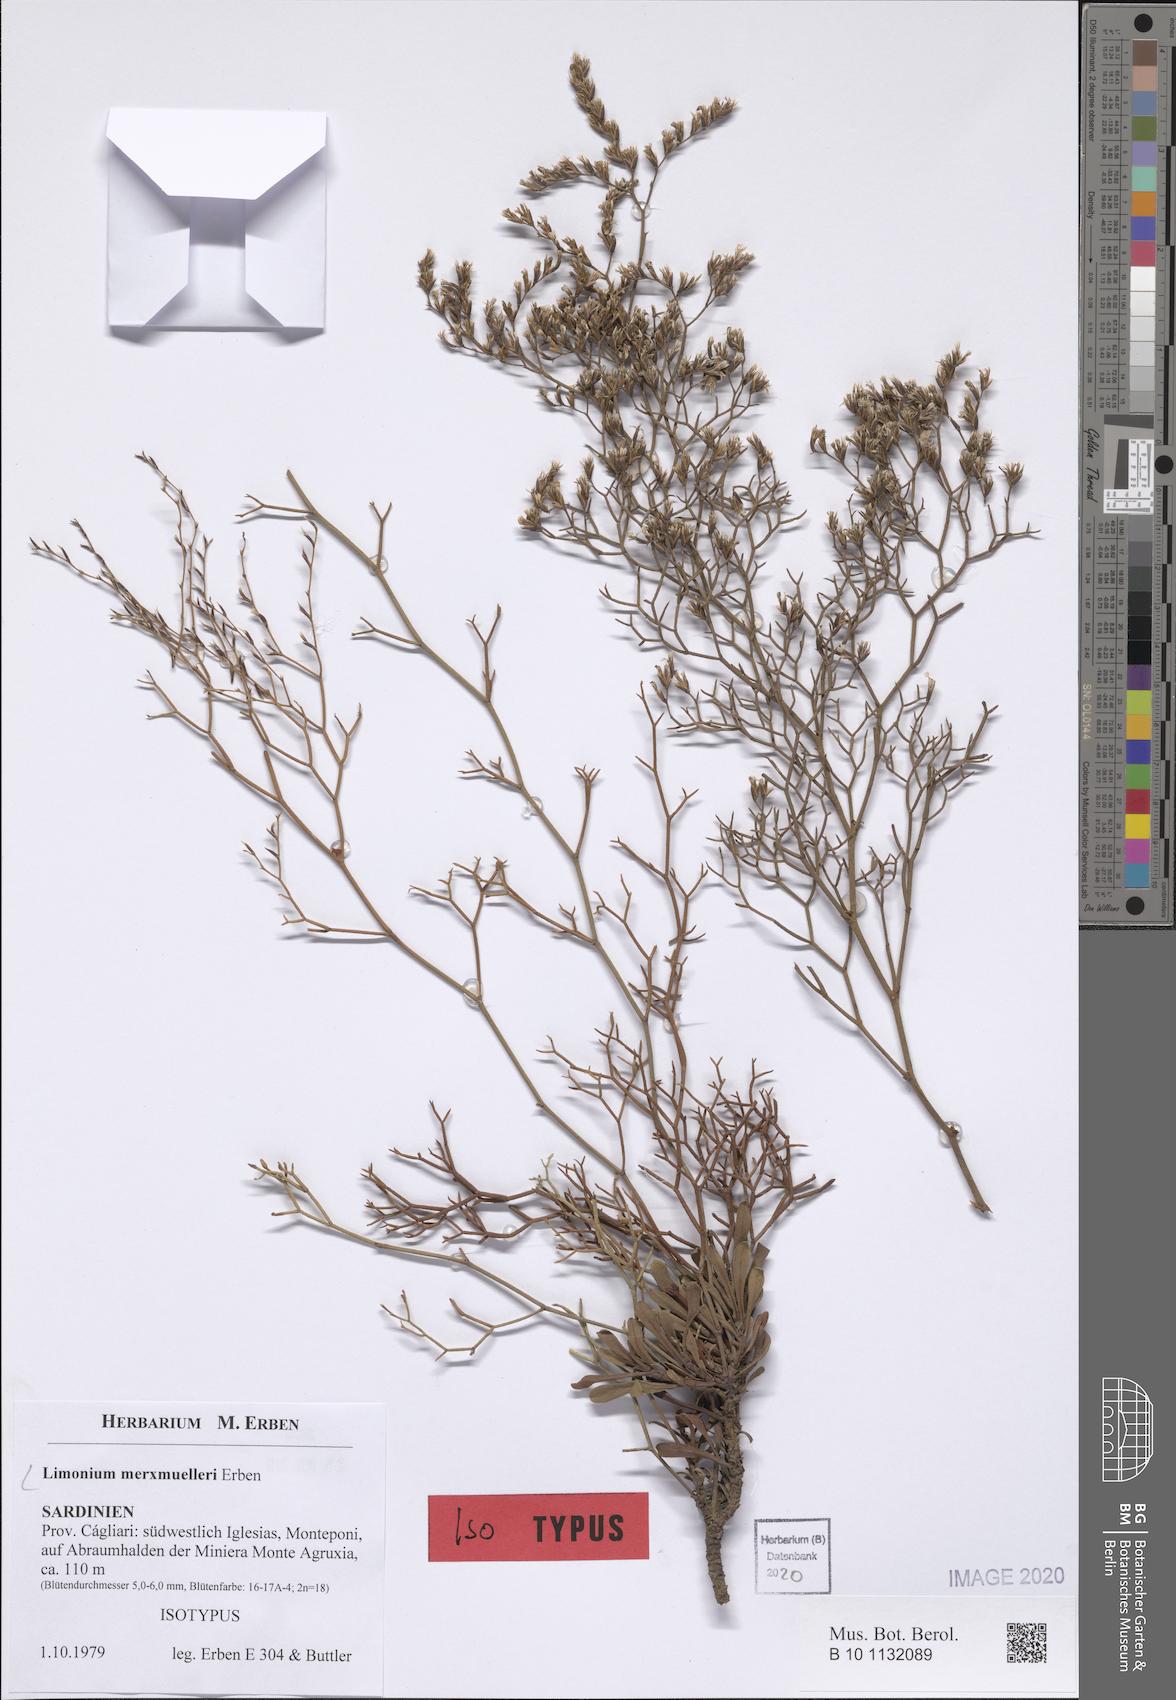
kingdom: Plantae
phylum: Tracheophyta
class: Magnoliopsida
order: Caryophyllales
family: Plumbaginaceae
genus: Limonium
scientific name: Limonium merxmuelleri
